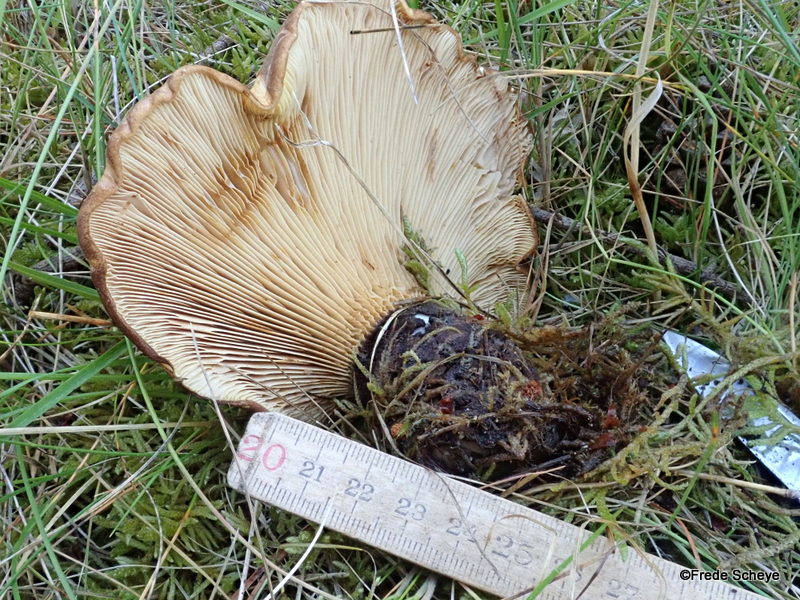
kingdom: Fungi
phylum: Basidiomycota
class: Agaricomycetes
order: Boletales
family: Tapinellaceae
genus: Tapinella
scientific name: Tapinella atrotomentosa
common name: sortfiltet viftesvamp
